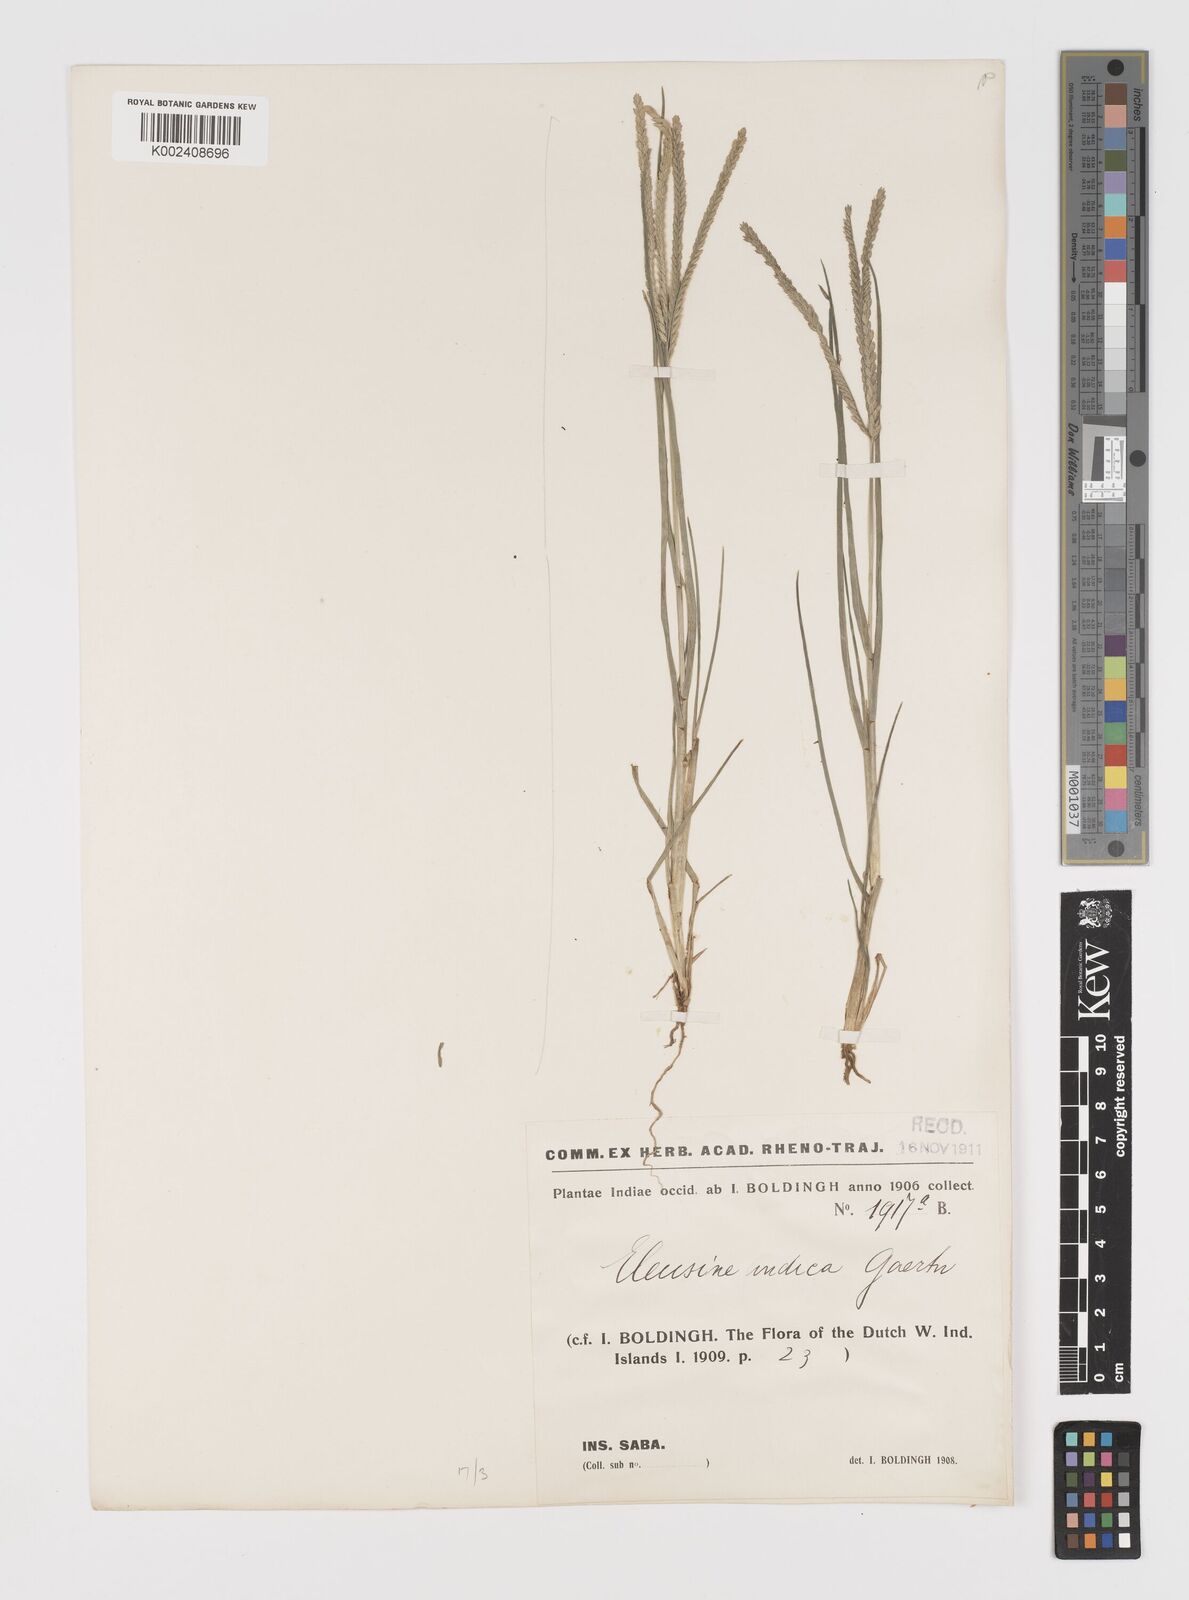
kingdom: Plantae
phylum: Tracheophyta
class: Liliopsida
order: Poales
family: Poaceae
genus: Eleusine
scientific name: Eleusine indica
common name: Yard-grass
